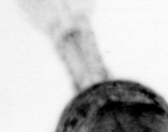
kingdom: Animalia
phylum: Arthropoda
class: Copepoda
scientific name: Copepoda
